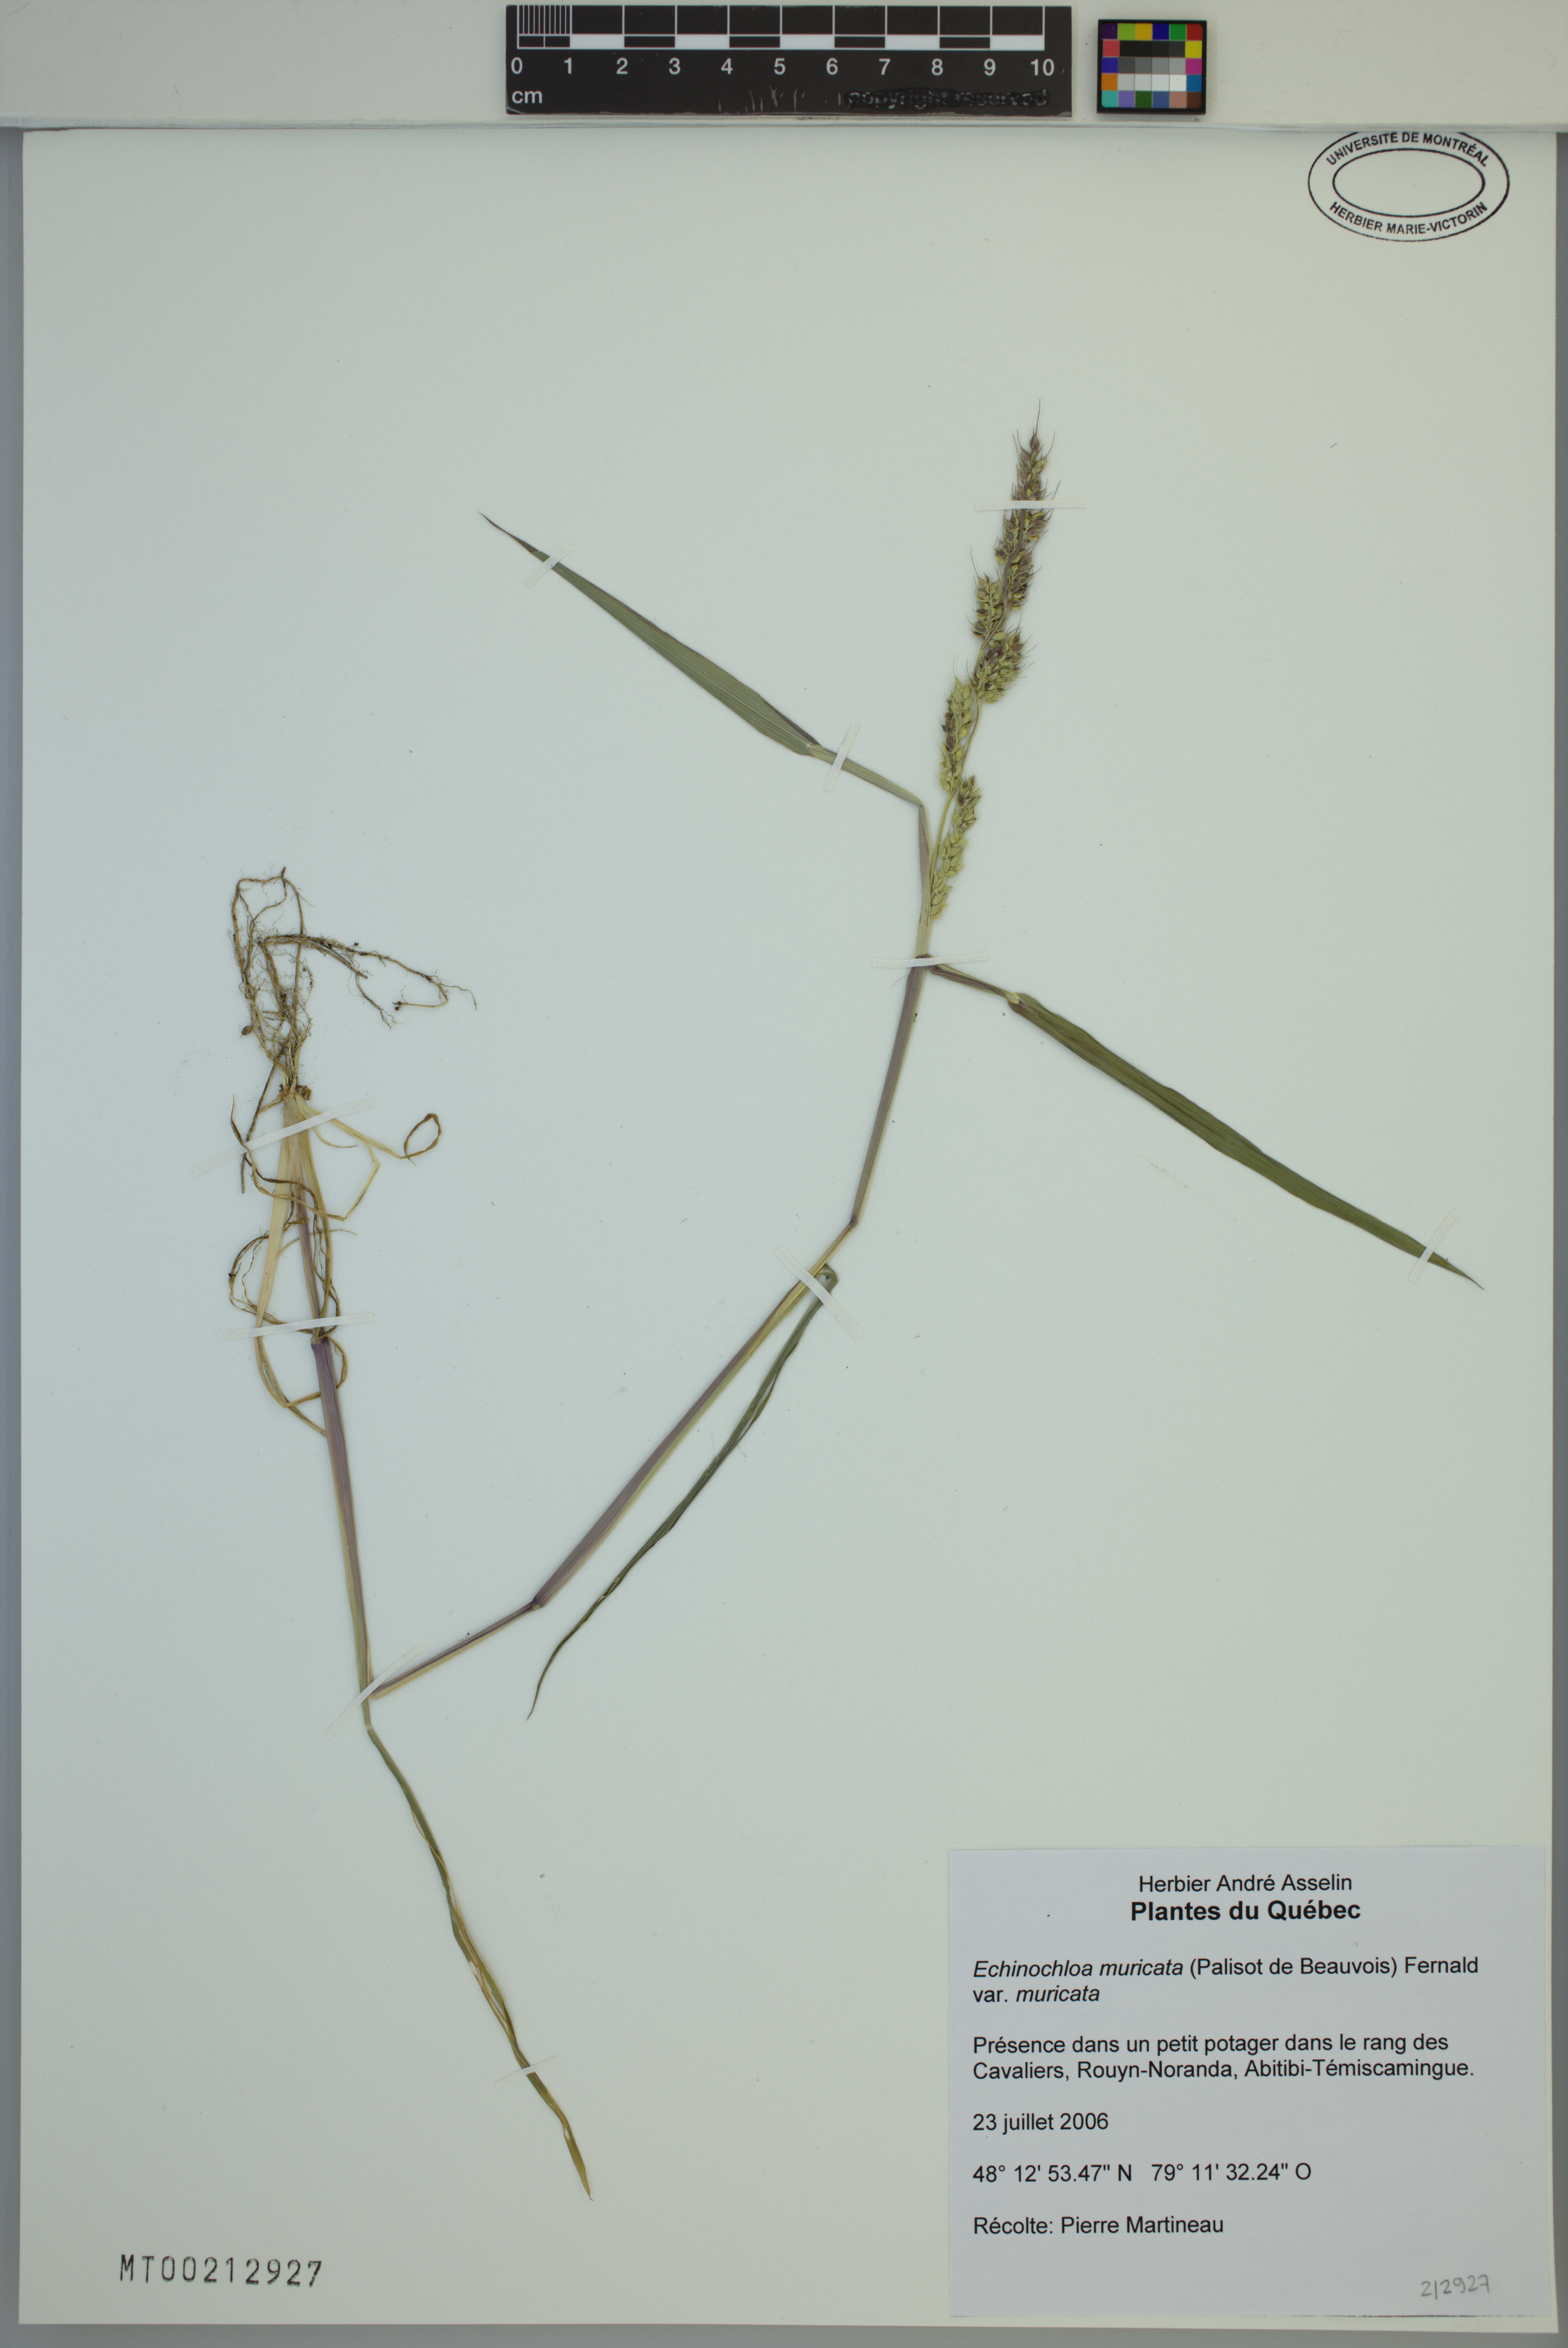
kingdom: Plantae
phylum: Tracheophyta
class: Liliopsida
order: Poales
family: Poaceae
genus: Echinochloa
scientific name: Echinochloa muricata
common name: American barnyard grass
